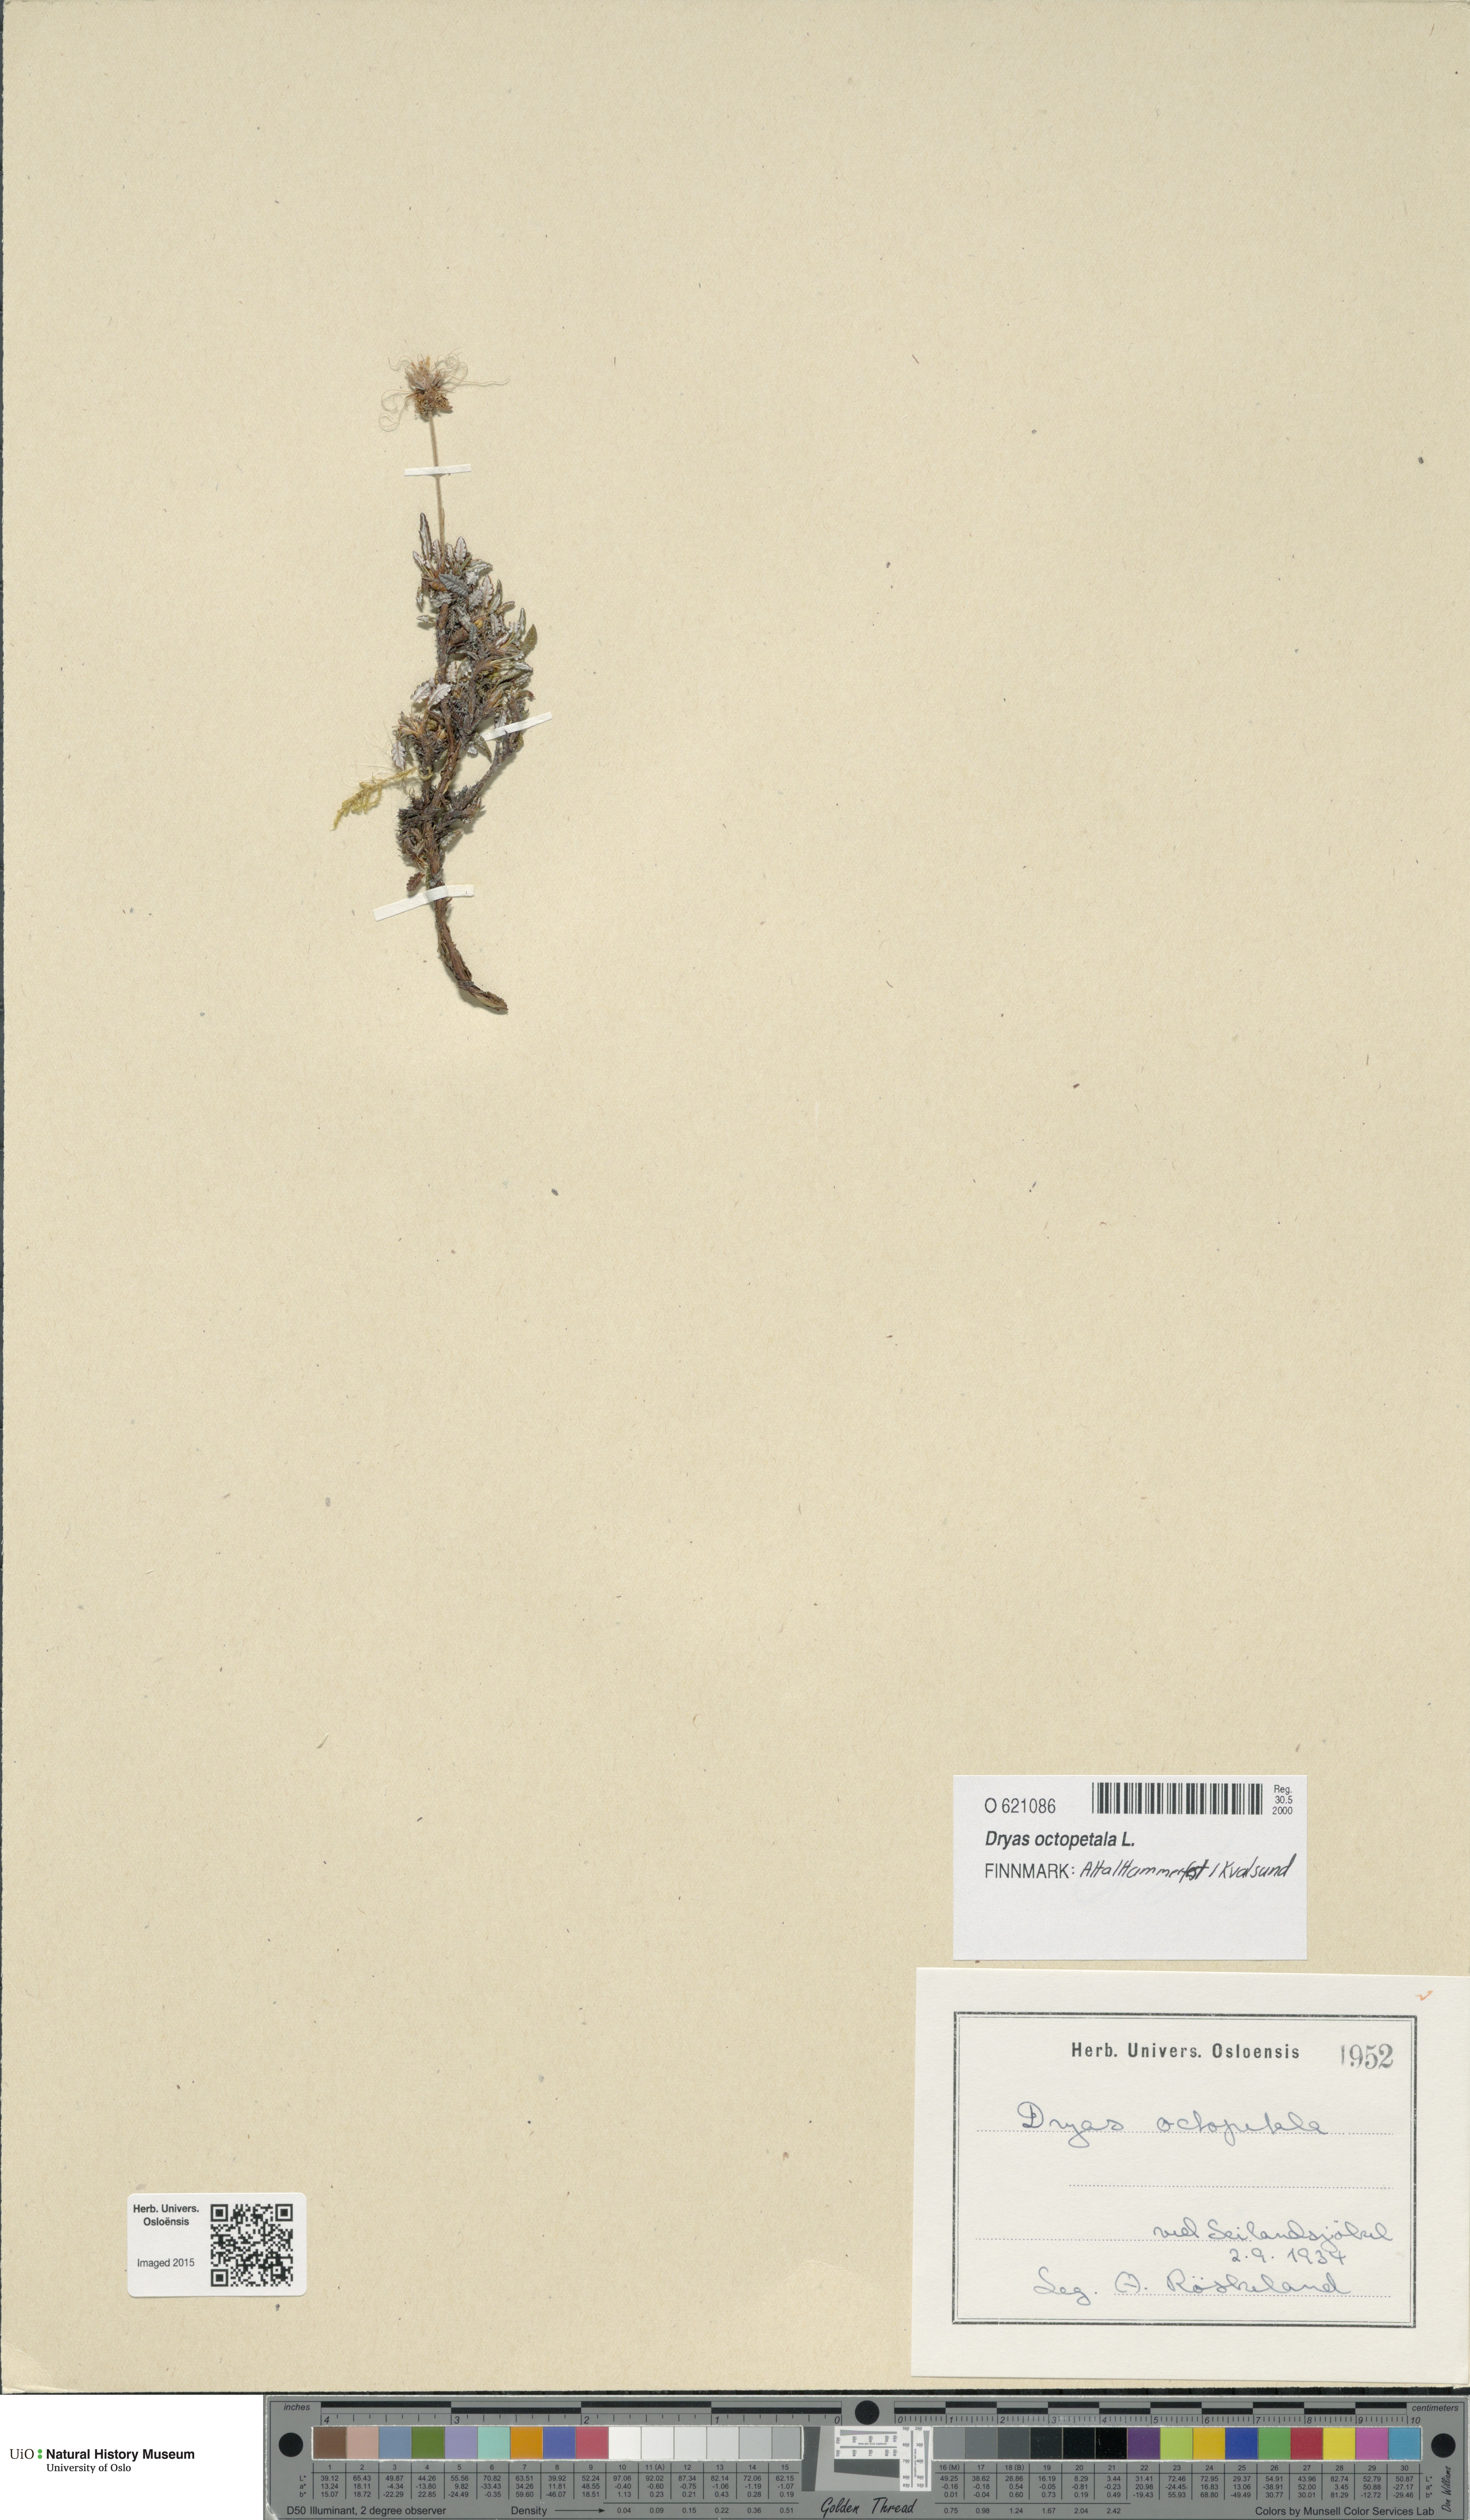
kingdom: Plantae
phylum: Tracheophyta
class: Magnoliopsida
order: Rosales
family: Rosaceae
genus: Dryas
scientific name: Dryas octopetala
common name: Eight-petal mountain-avens
